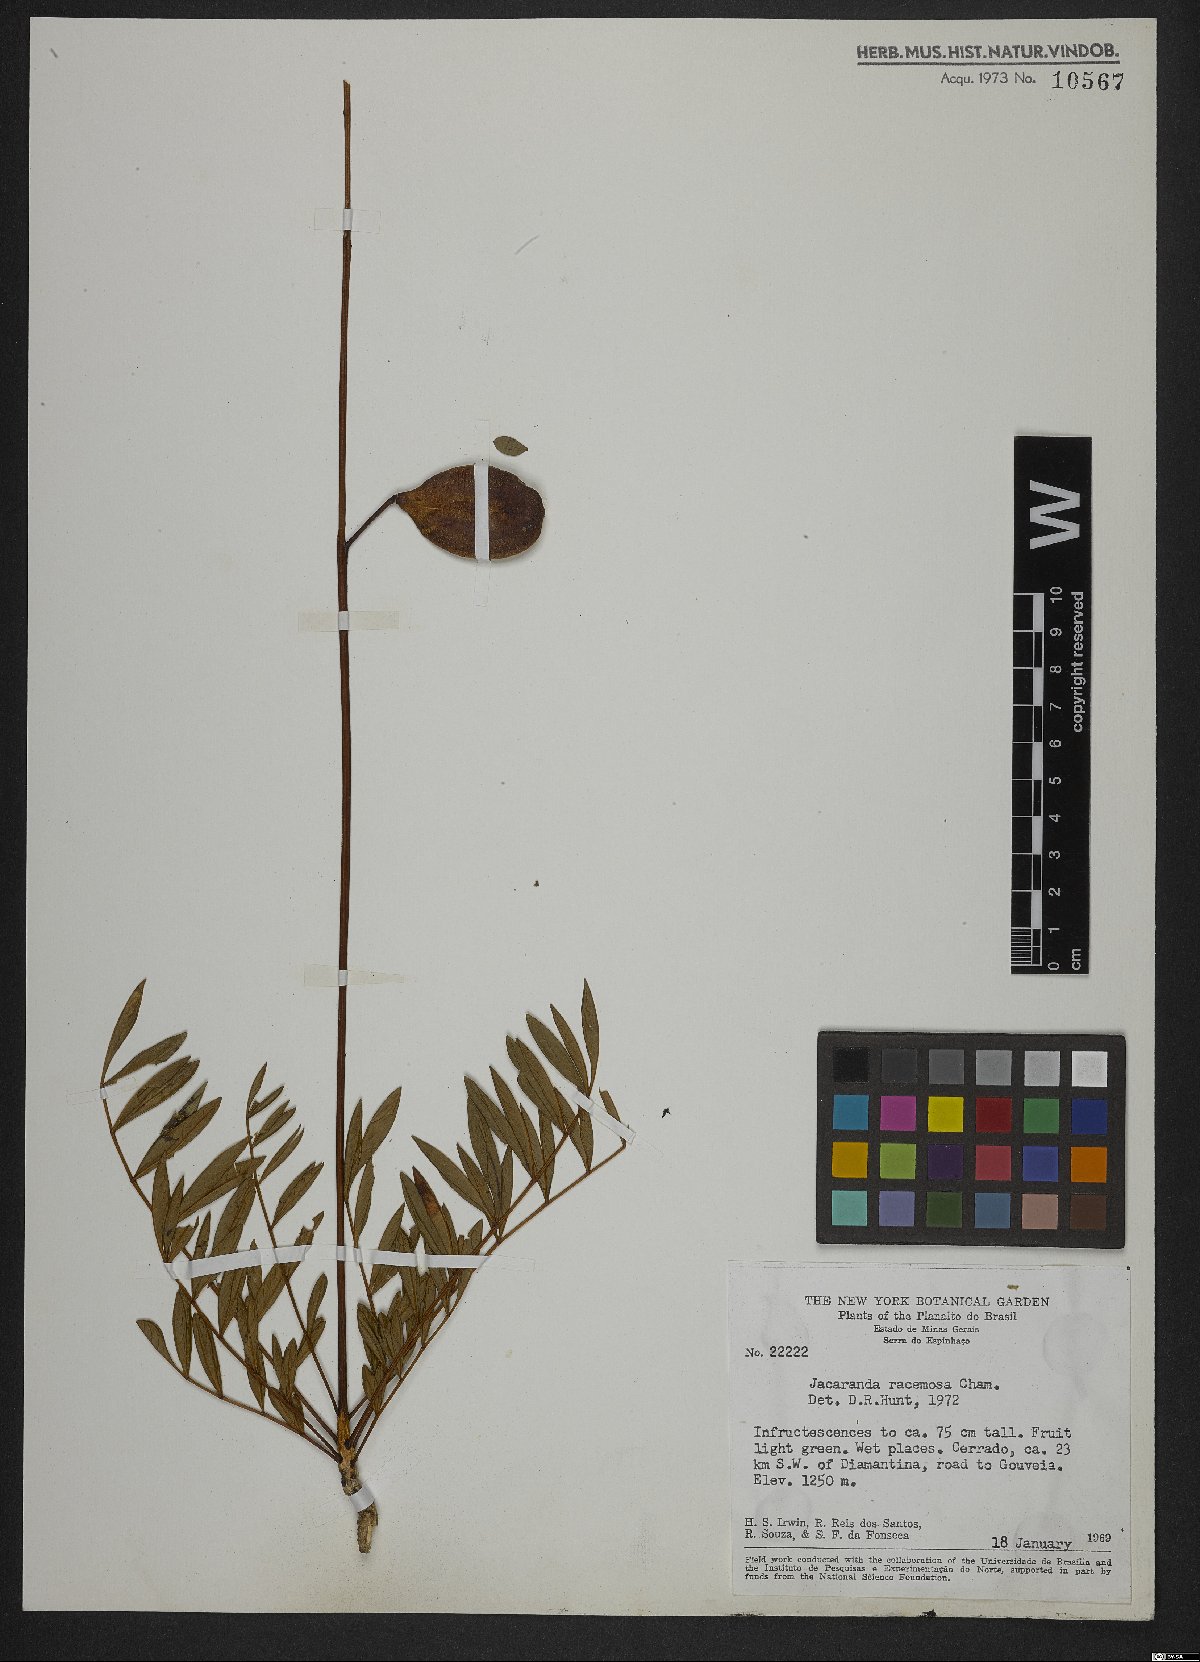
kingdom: Plantae
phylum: Tracheophyta
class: Magnoliopsida
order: Lamiales
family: Bignoniaceae
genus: Jacaranda
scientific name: Jacaranda racemosa
